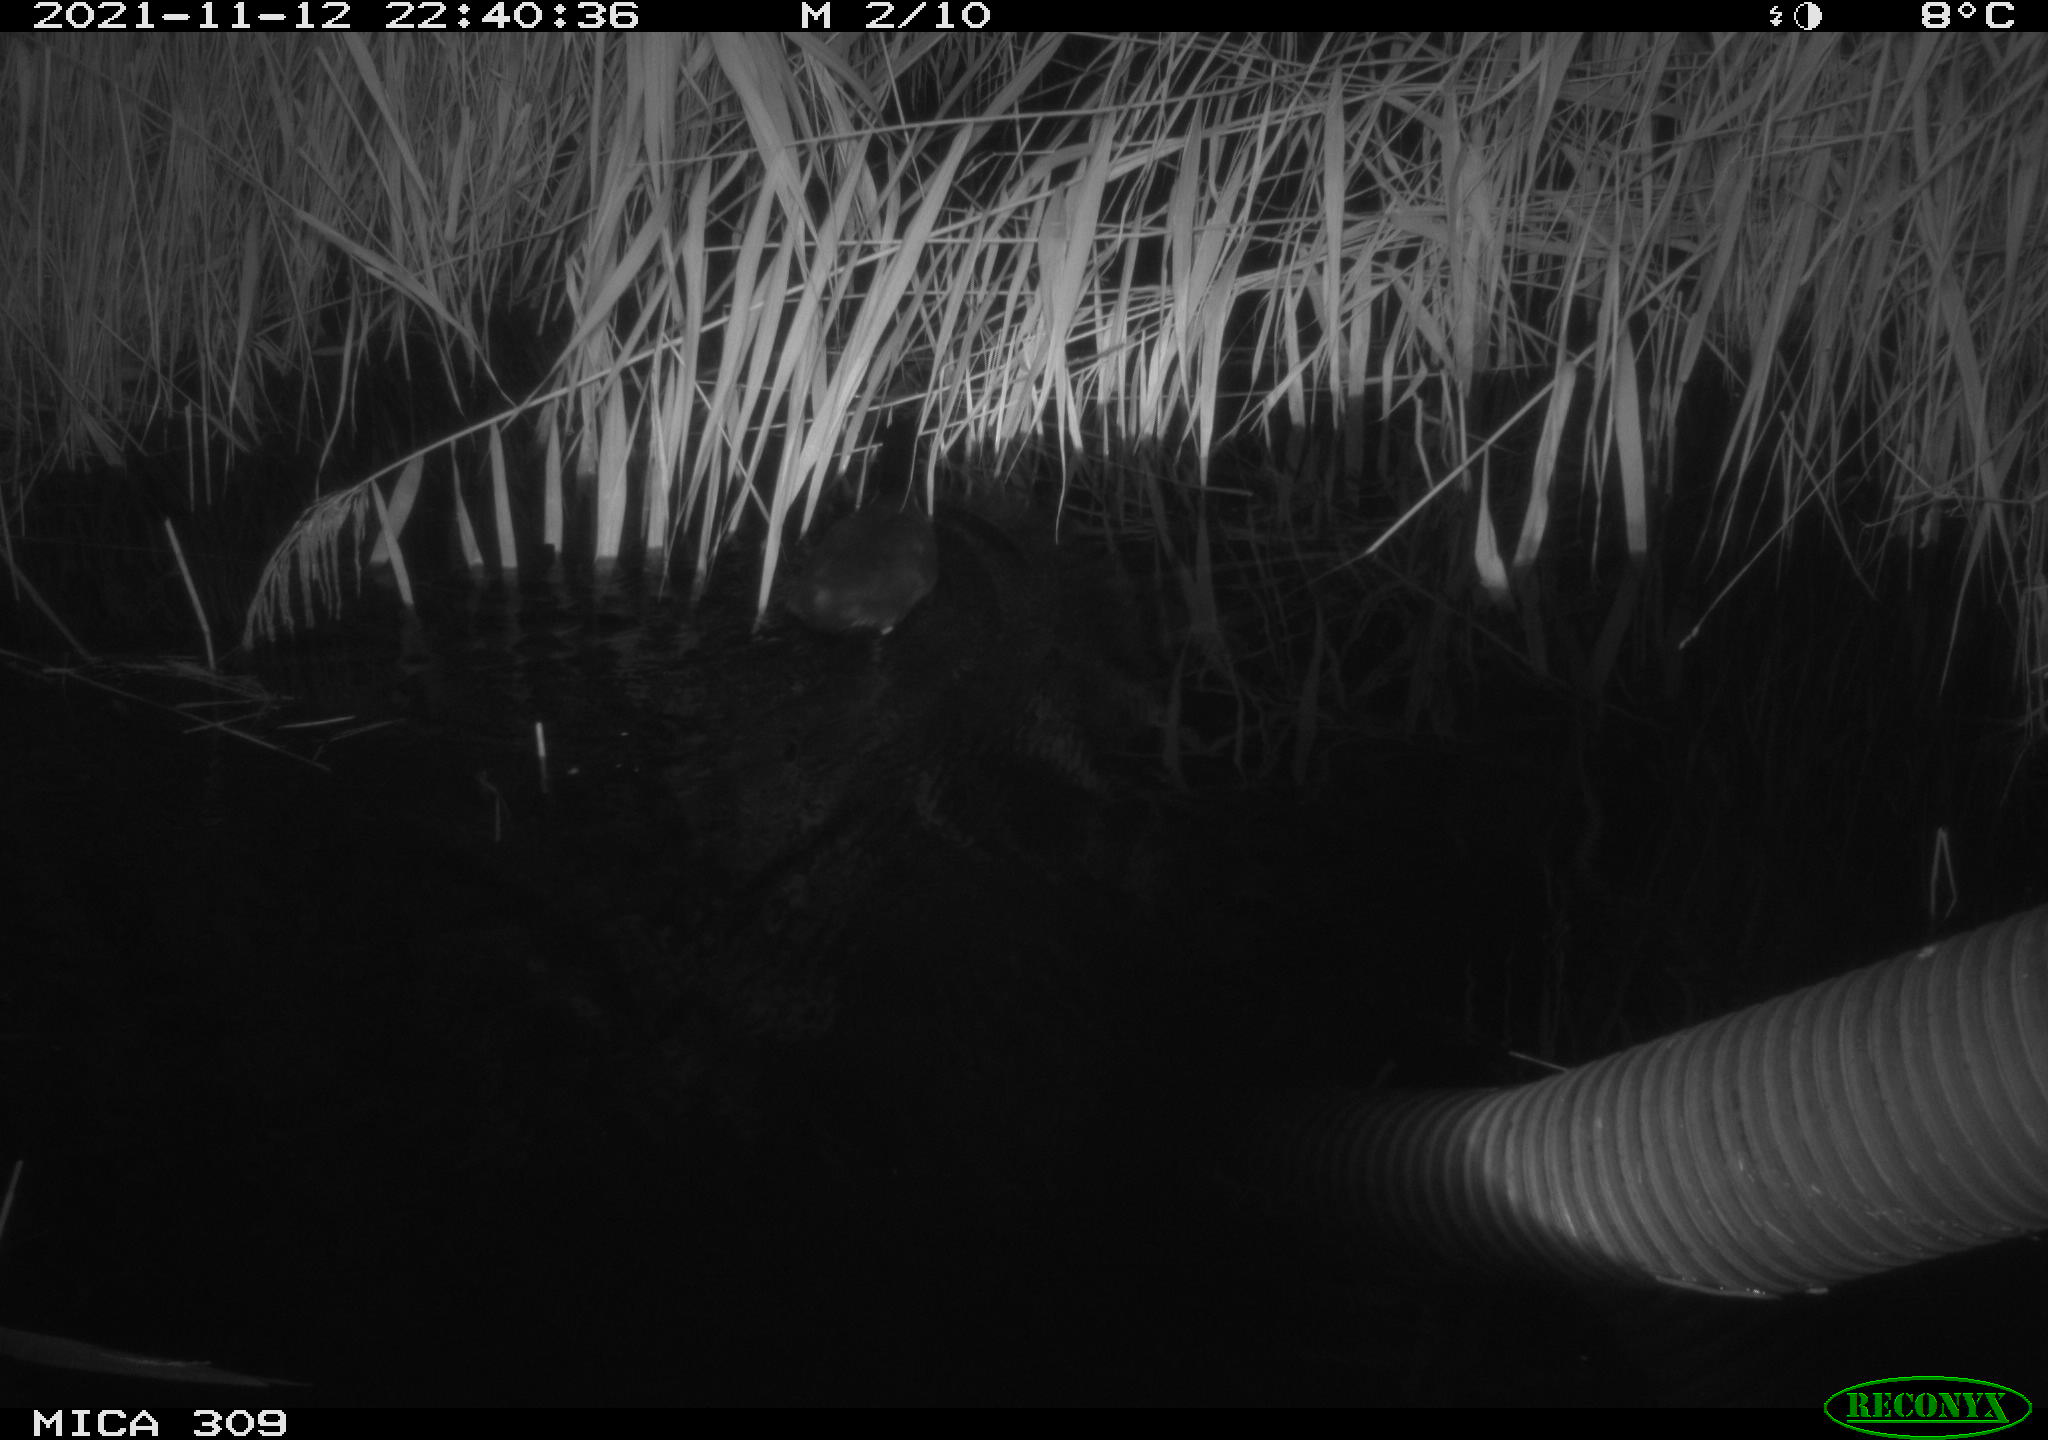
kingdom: Animalia
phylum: Chordata
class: Aves
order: Gruiformes
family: Rallidae
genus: Fulica
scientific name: Fulica atra
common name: Eurasian coot
